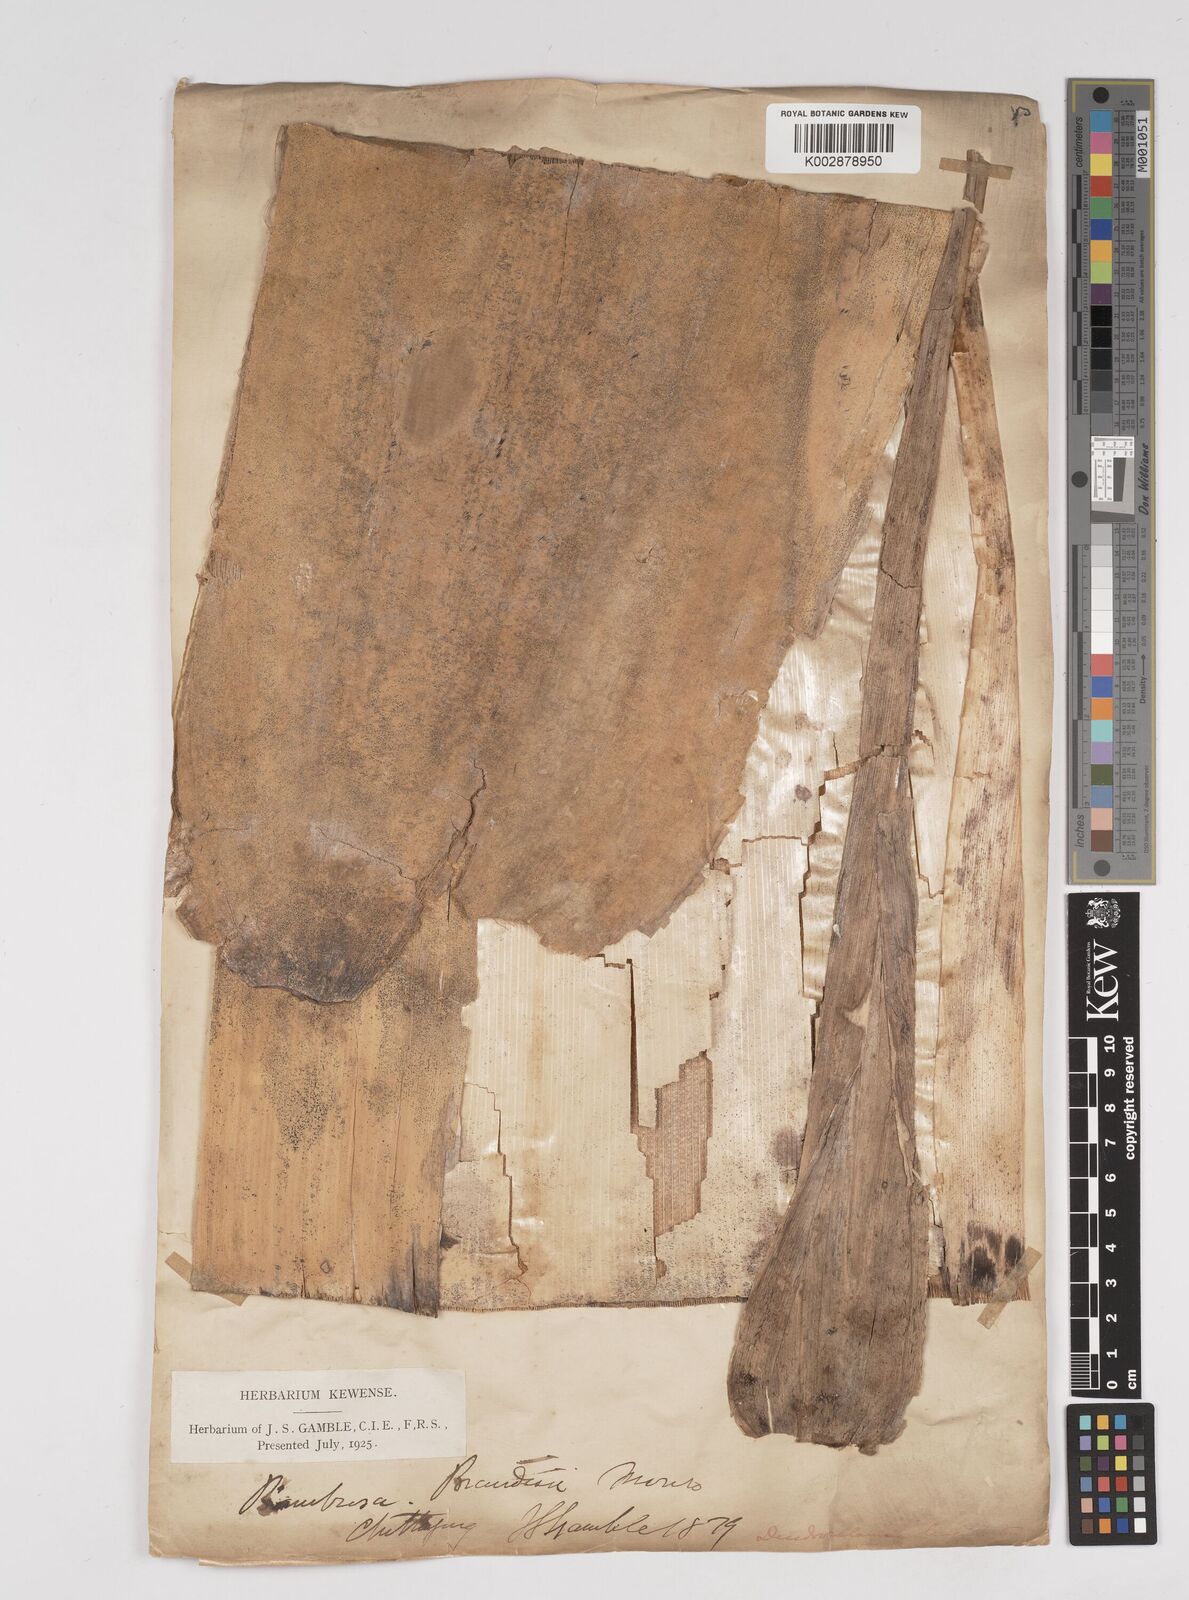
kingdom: Plantae
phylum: Tracheophyta
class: Liliopsida
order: Poales
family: Poaceae
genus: Dendrocalamus
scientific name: Dendrocalamus longispathus
